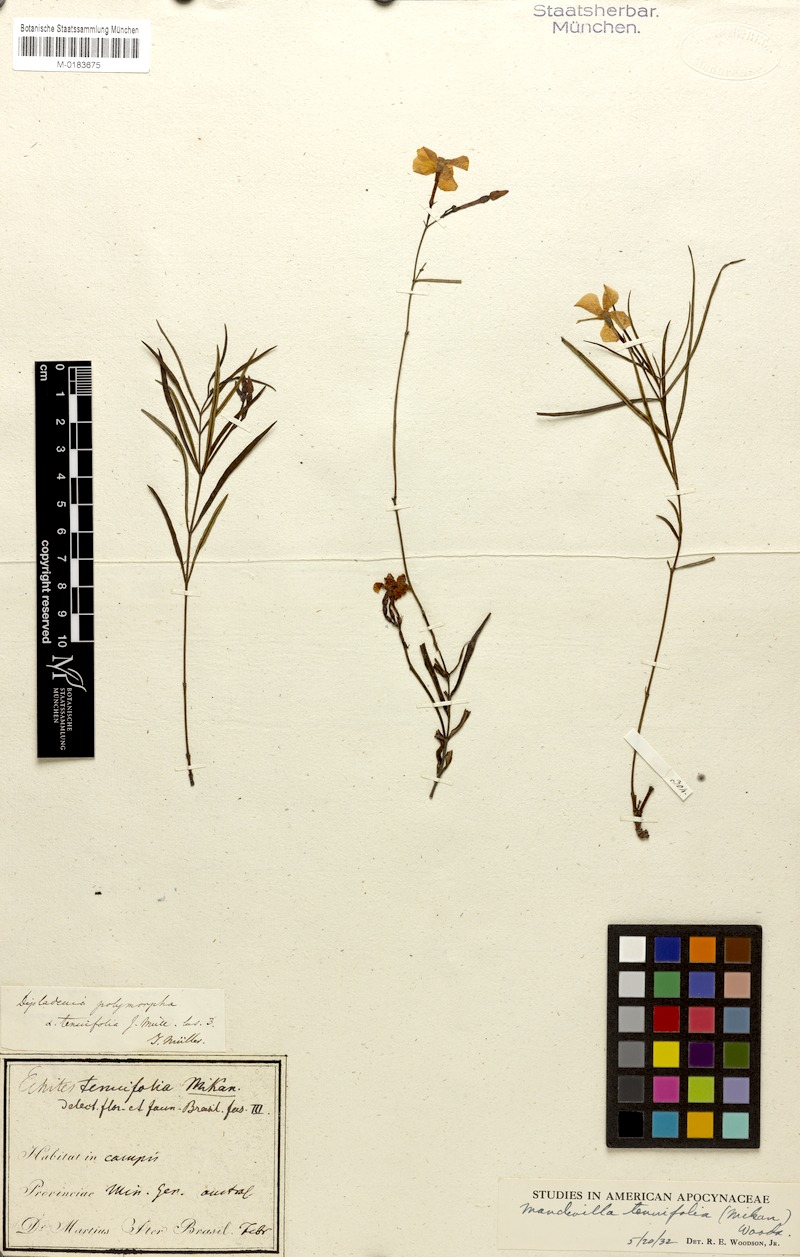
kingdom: Plantae
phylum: Tracheophyta
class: Magnoliopsida
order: Gentianales
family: Apocynaceae
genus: Mandevilla
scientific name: Mandevilla tenuifolia
